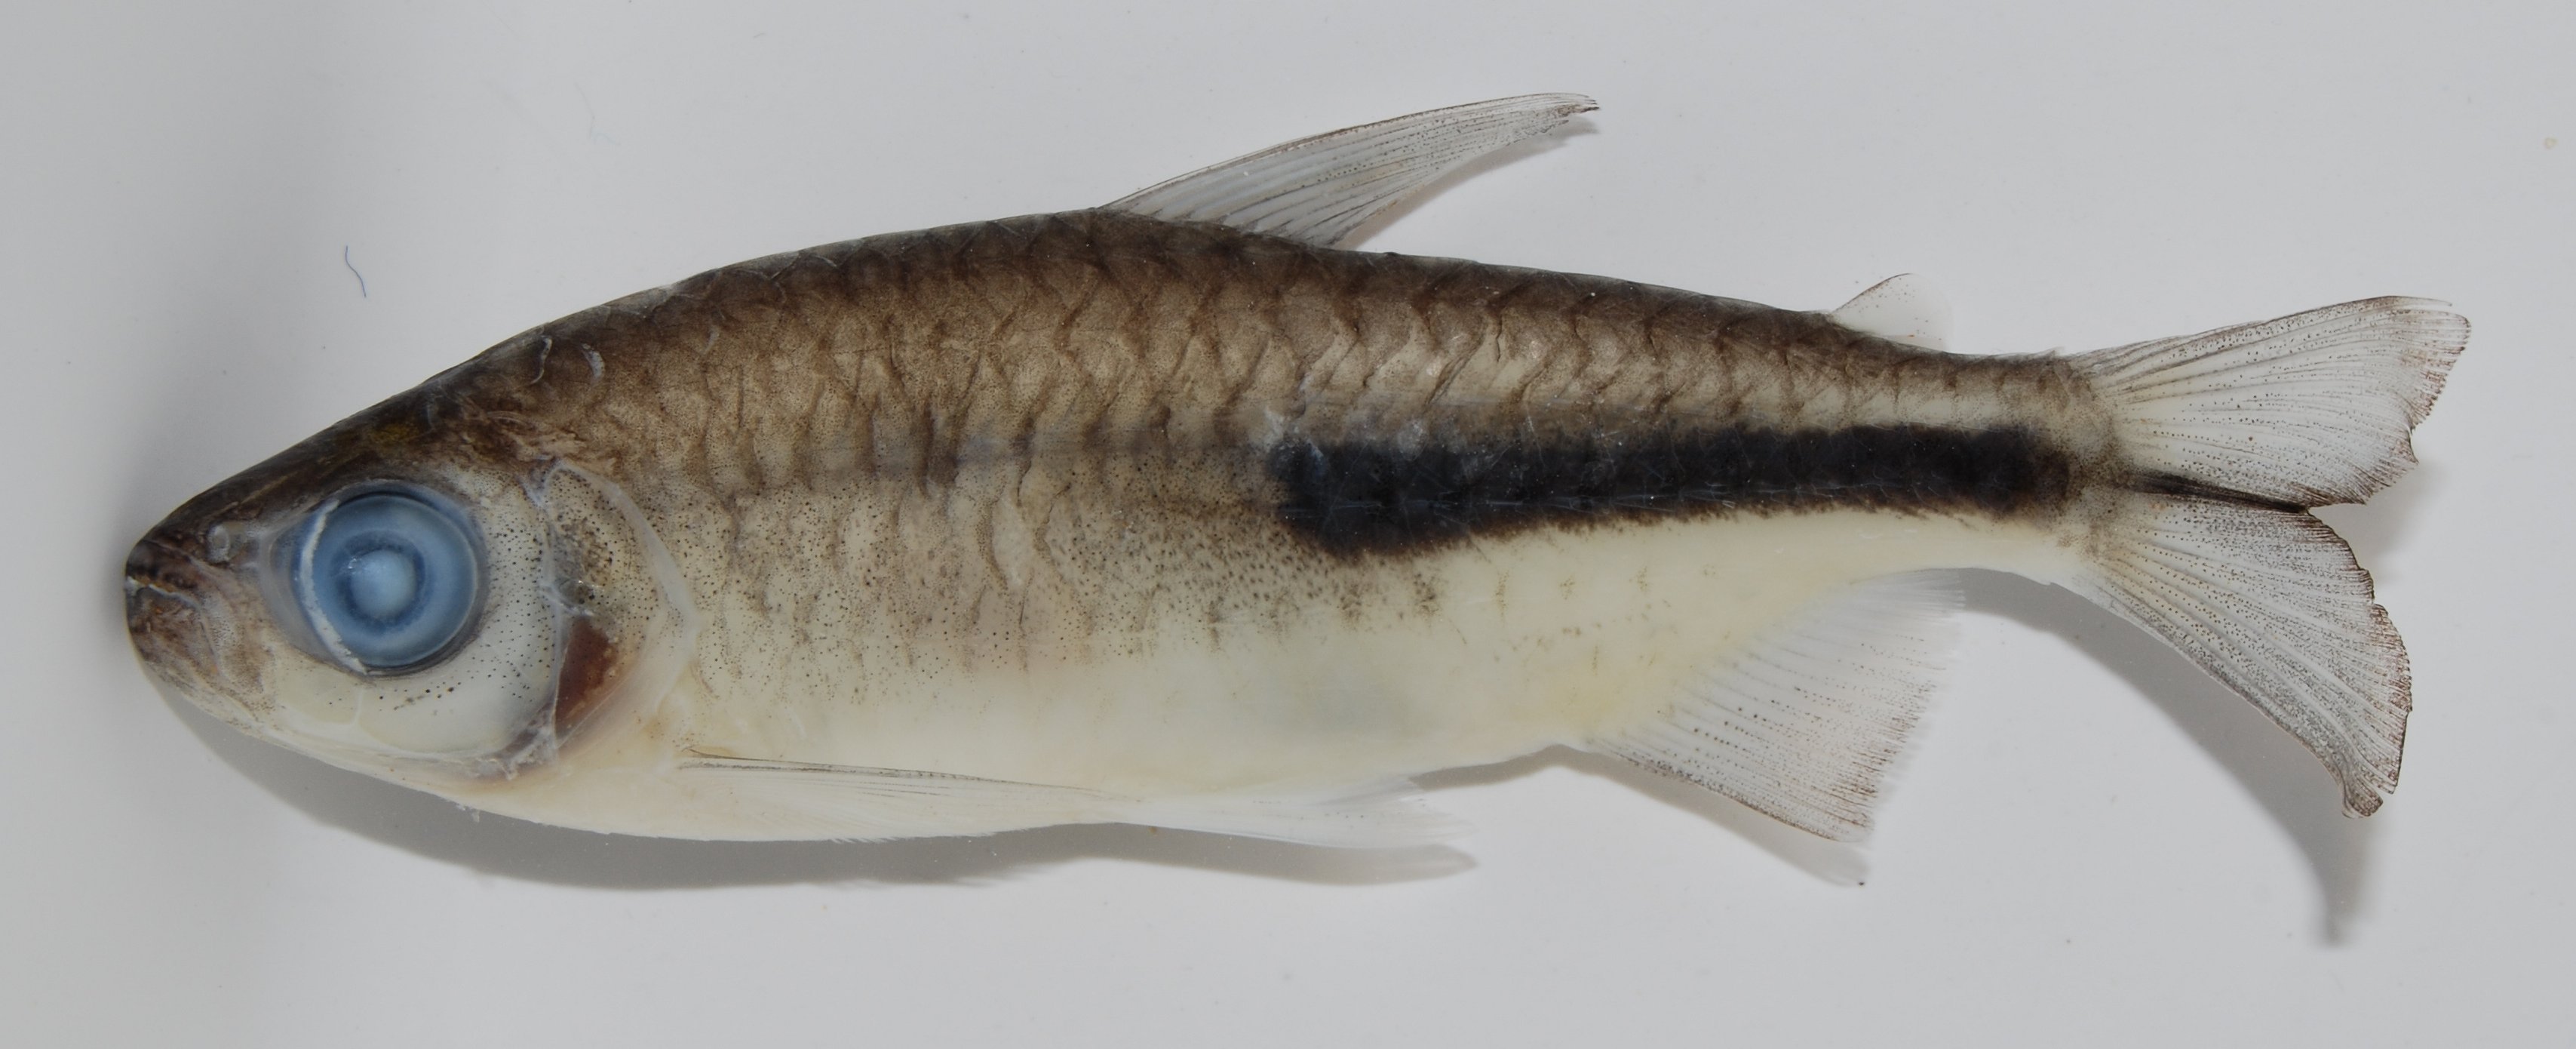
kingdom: Animalia
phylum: Chordata
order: Characiformes
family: Alestidae
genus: Brycinus
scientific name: Brycinus
